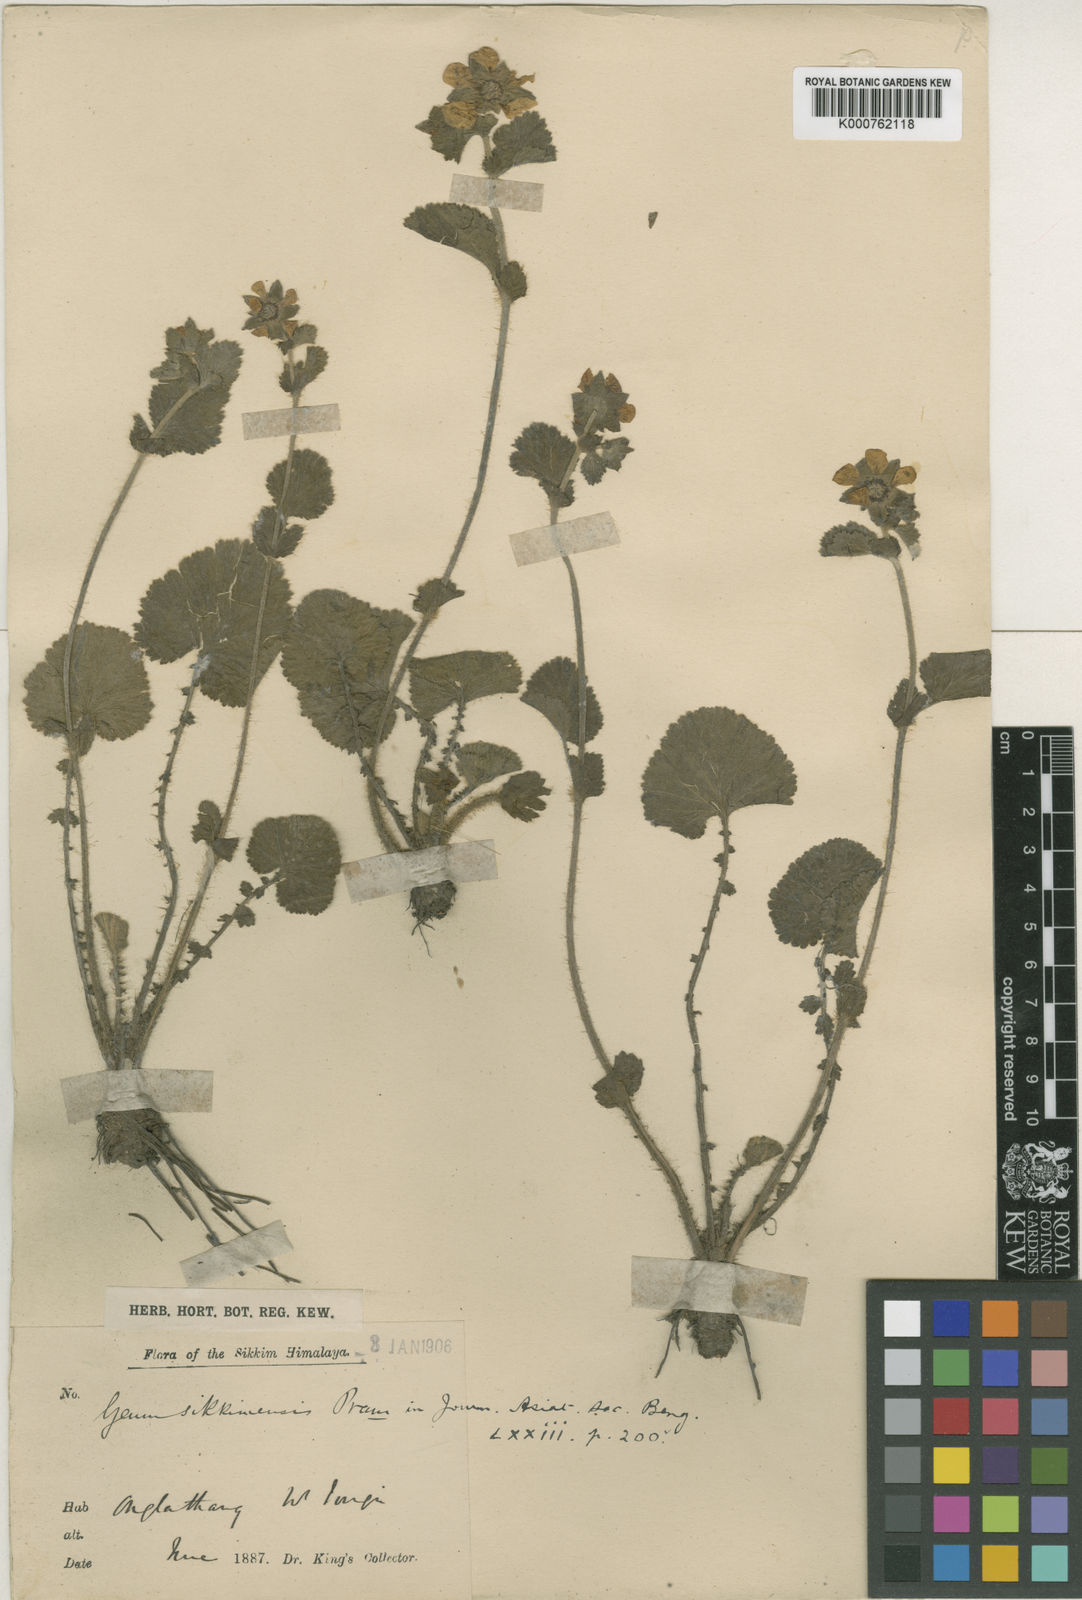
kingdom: Plantae
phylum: Tracheophyta
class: Magnoliopsida
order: Rosales
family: Rosaceae
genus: Geum
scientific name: Geum sikkimense
